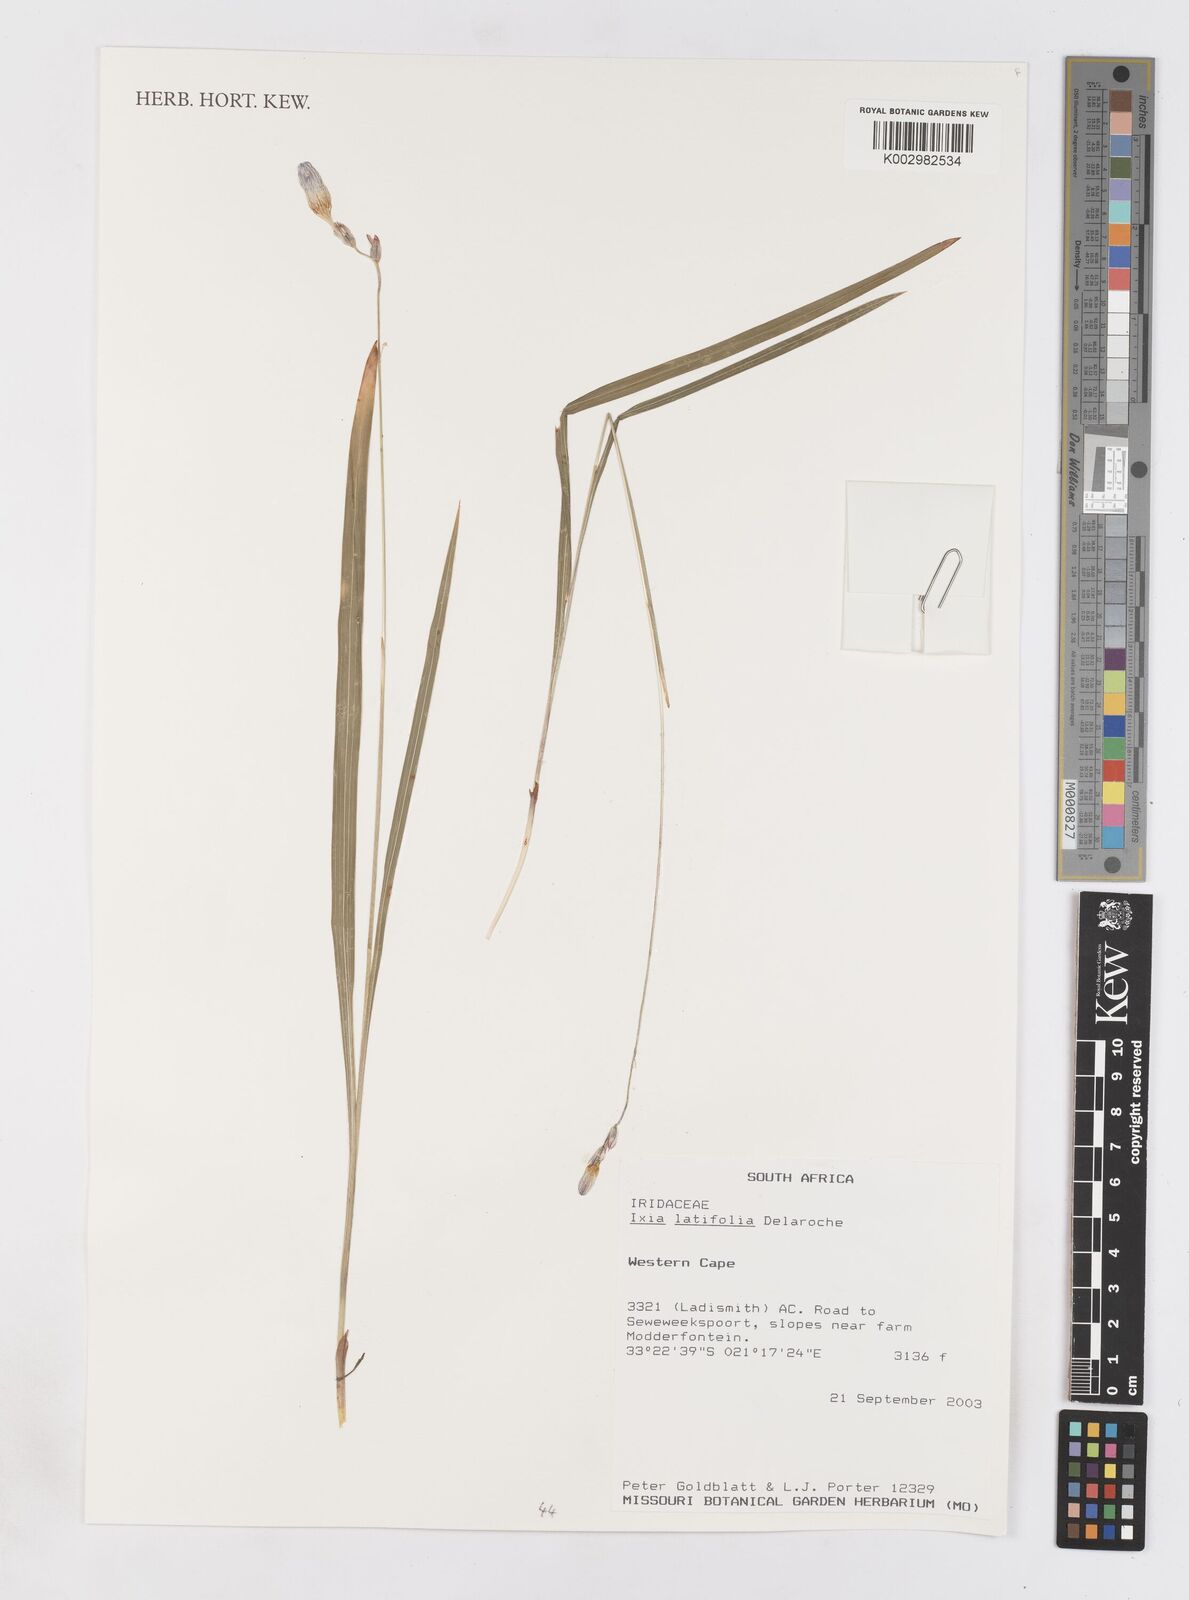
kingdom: Plantae
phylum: Tracheophyta
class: Liliopsida
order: Asparagales
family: Iridaceae
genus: Ixia
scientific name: Ixia latifolia
